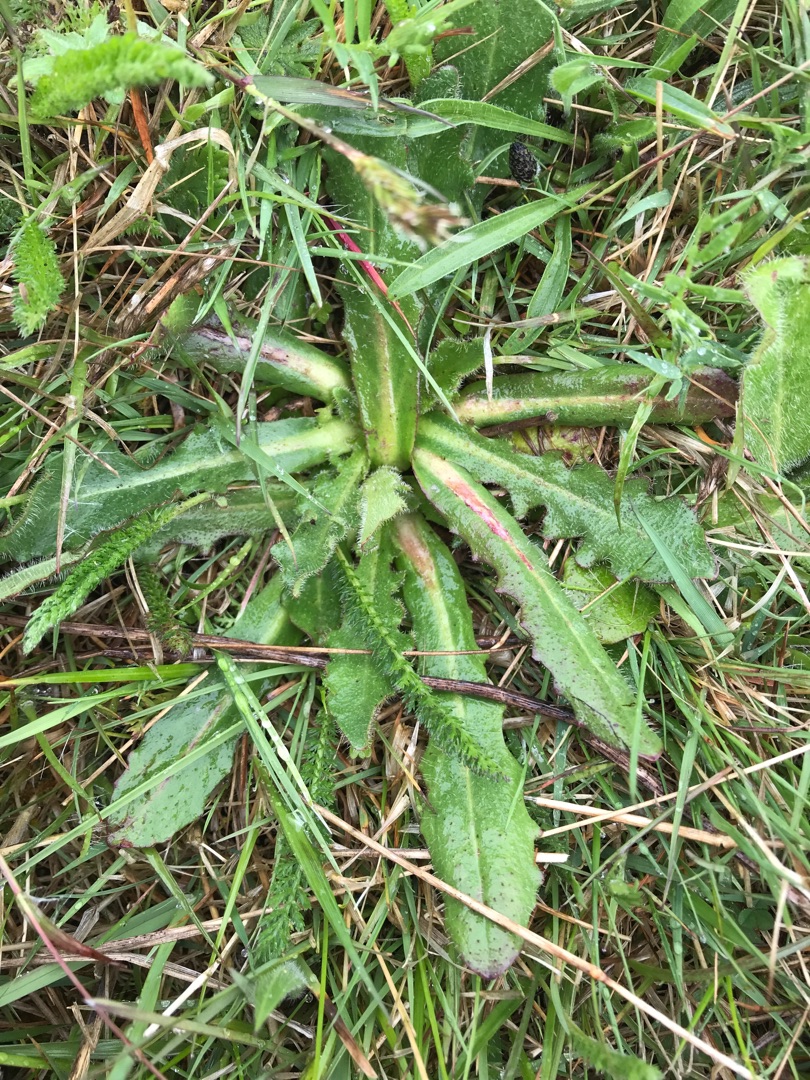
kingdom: Plantae
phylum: Tracheophyta
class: Magnoliopsida
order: Asterales
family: Asteraceae
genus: Hypochaeris
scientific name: Hypochaeris radicata
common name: Almindelig kongepen
